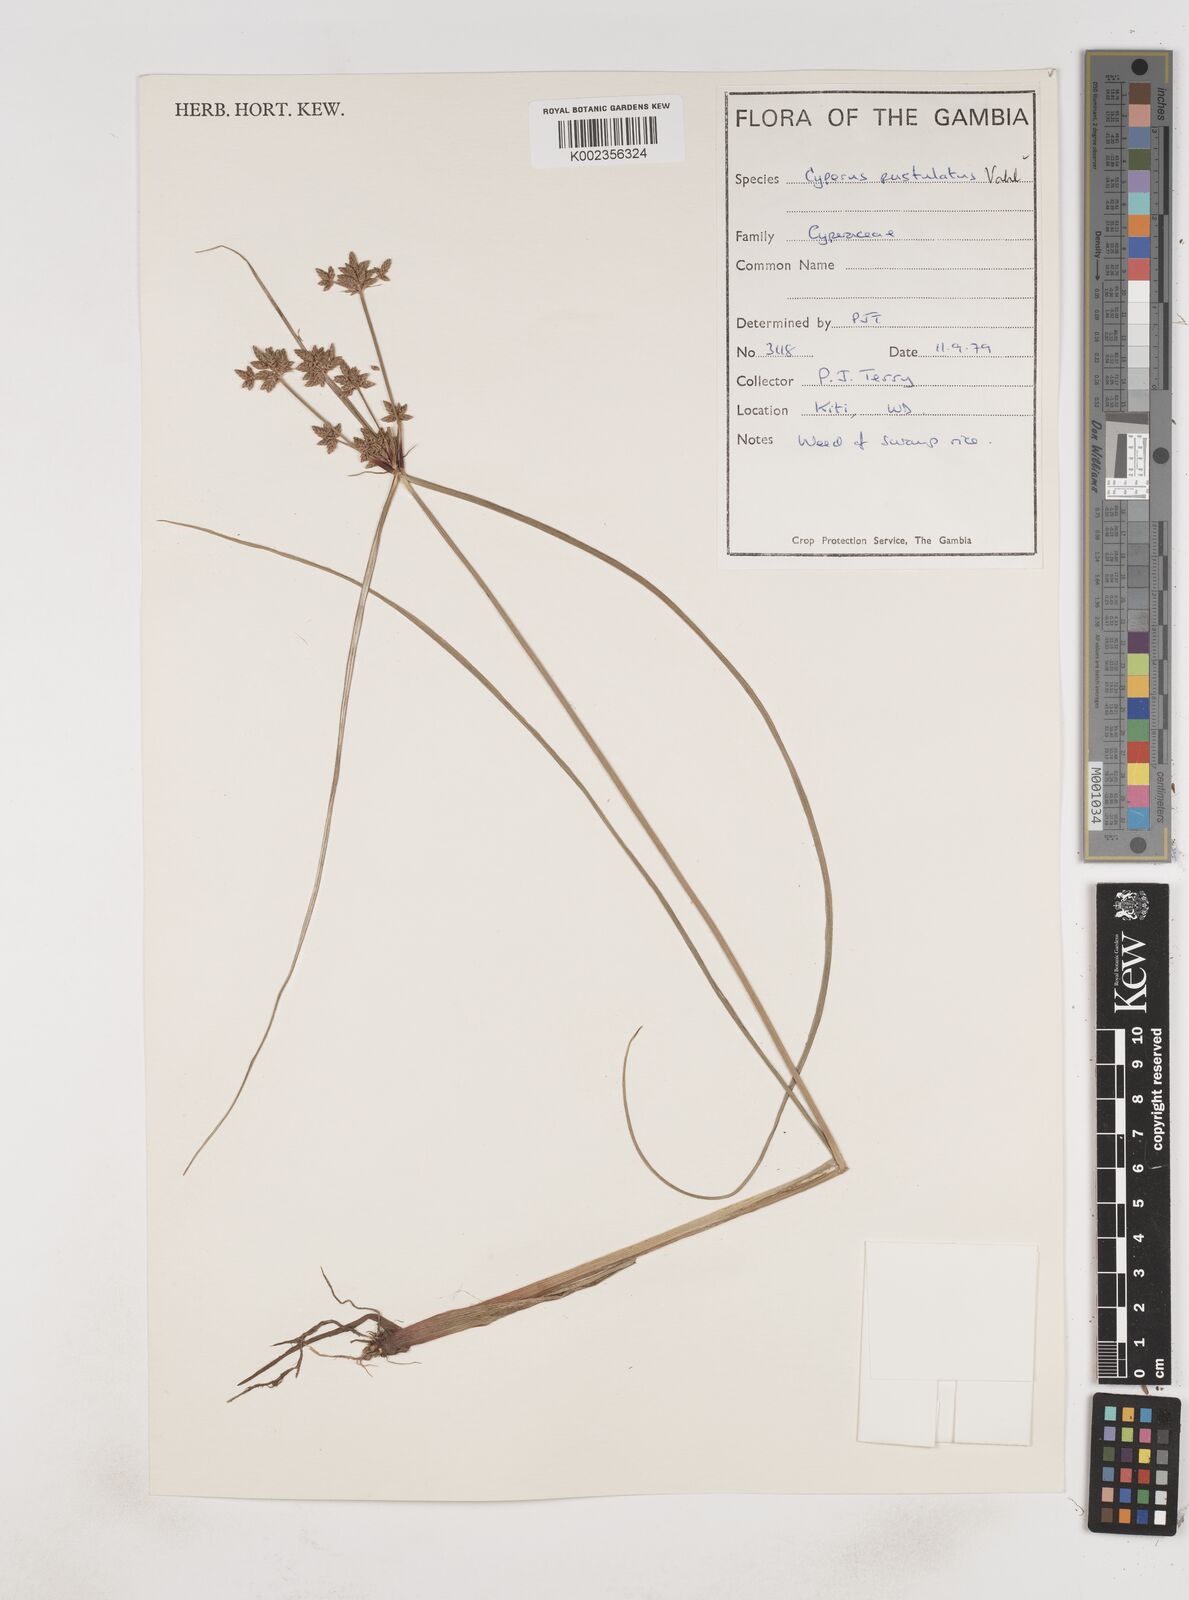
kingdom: Plantae
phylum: Tracheophyta
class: Liliopsida
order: Poales
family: Cyperaceae
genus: Cyperus
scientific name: Cyperus pustulatus
